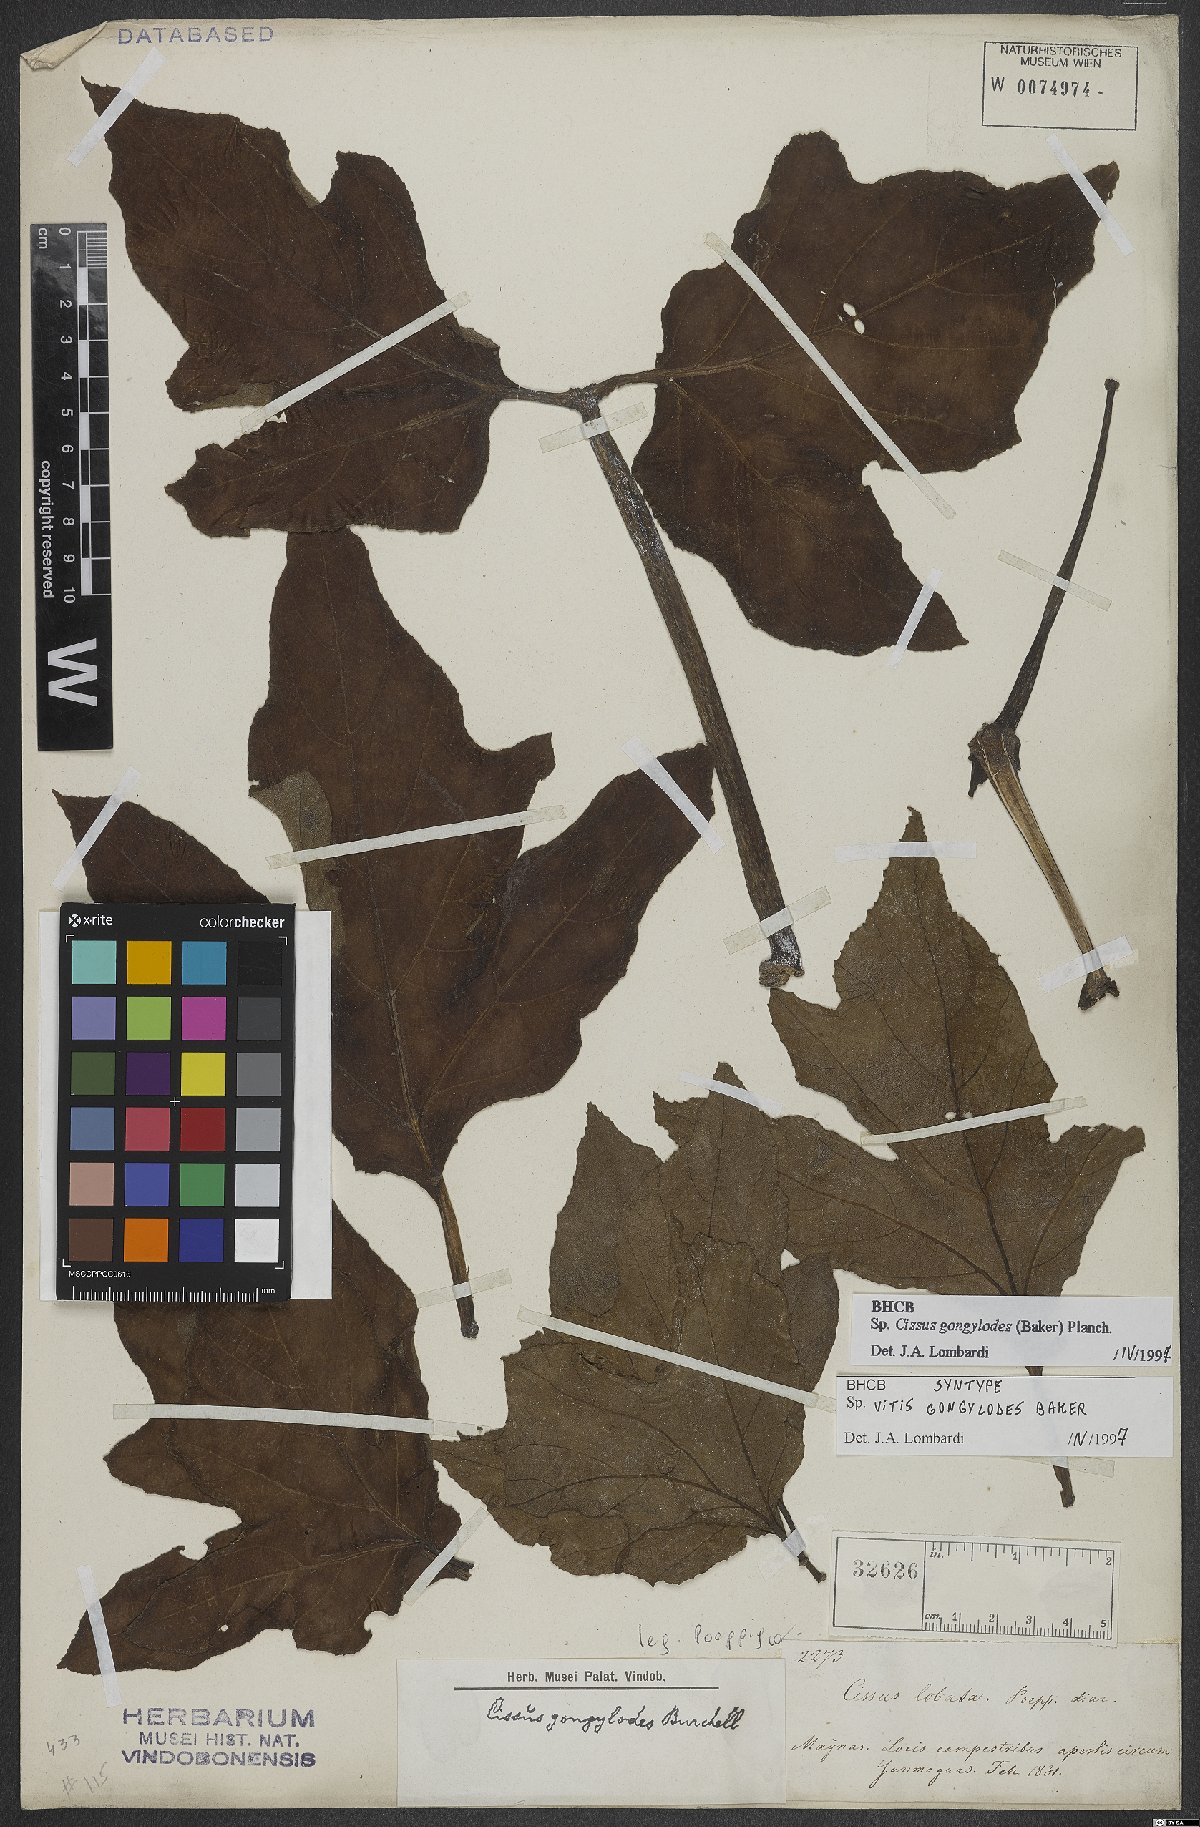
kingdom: Plantae
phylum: Tracheophyta
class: Magnoliopsida
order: Vitales
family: Vitaceae
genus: Cissus
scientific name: Cissus gongylodes
